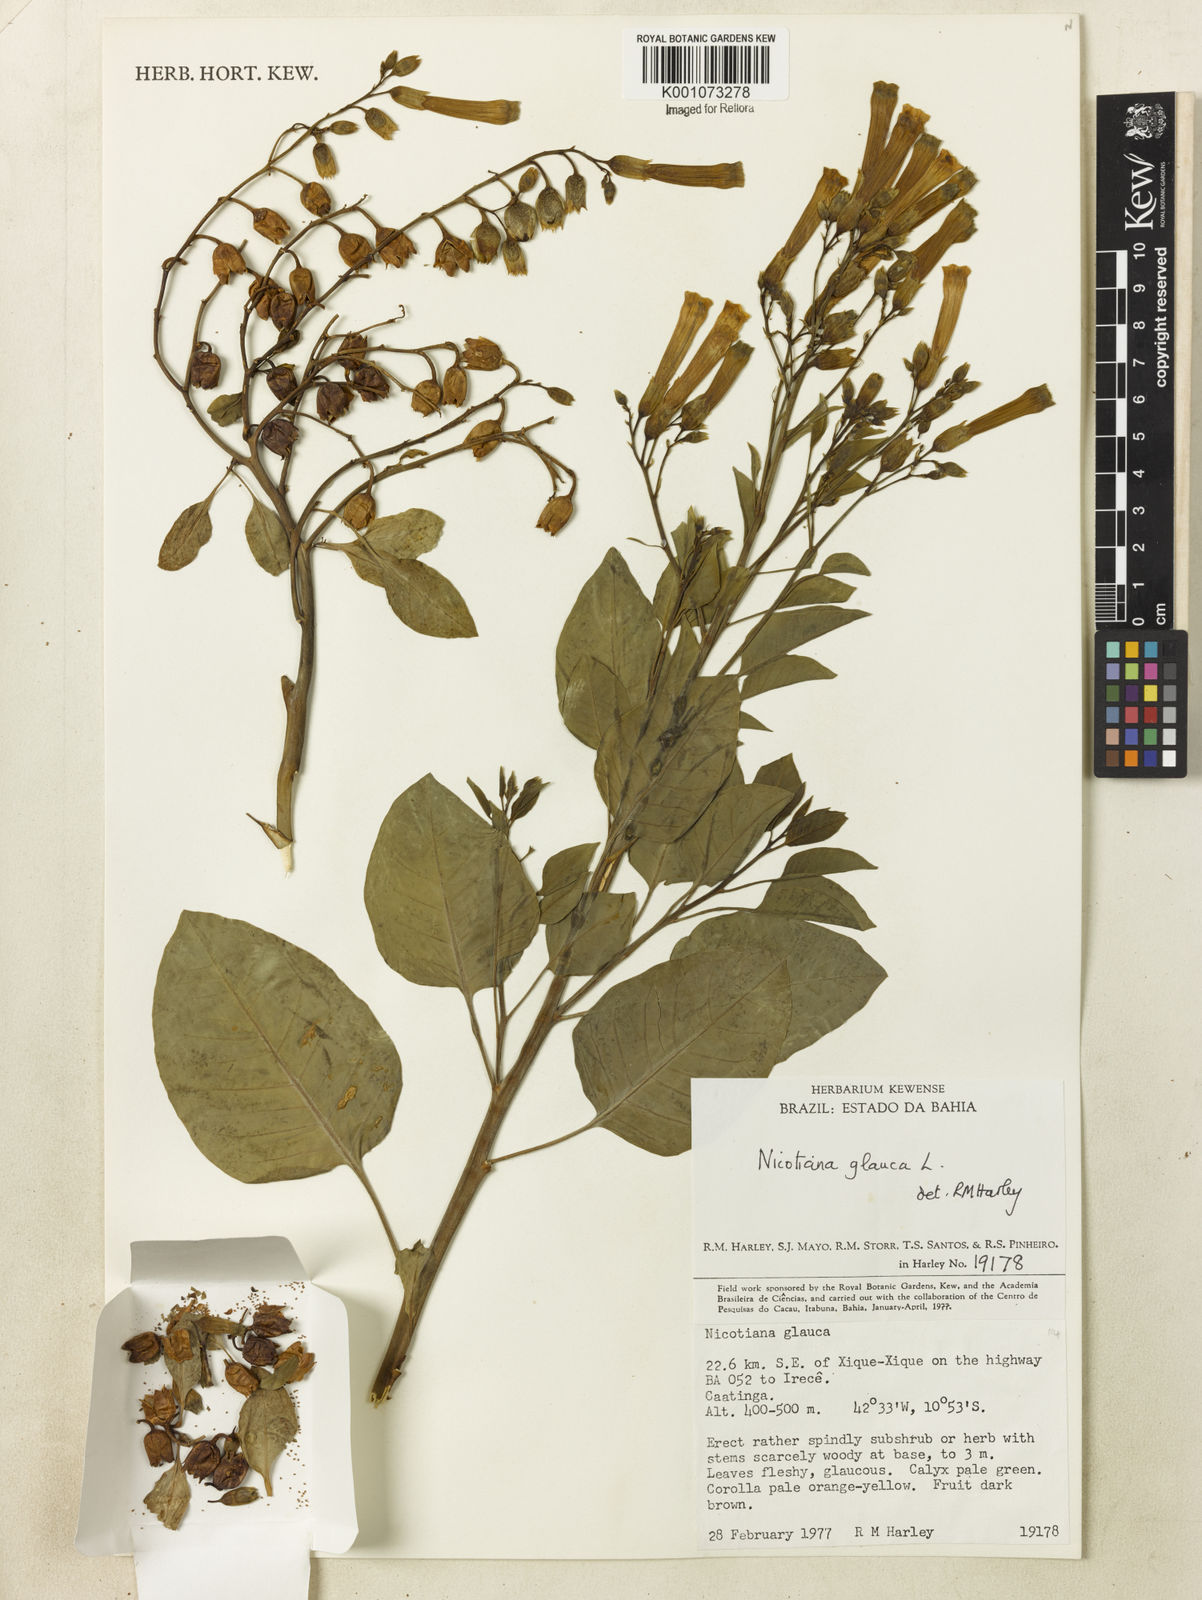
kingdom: Plantae
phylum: Tracheophyta
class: Magnoliopsida
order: Solanales
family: Solanaceae
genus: Nicotiana
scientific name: Nicotiana glauca
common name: Tree tobacco
